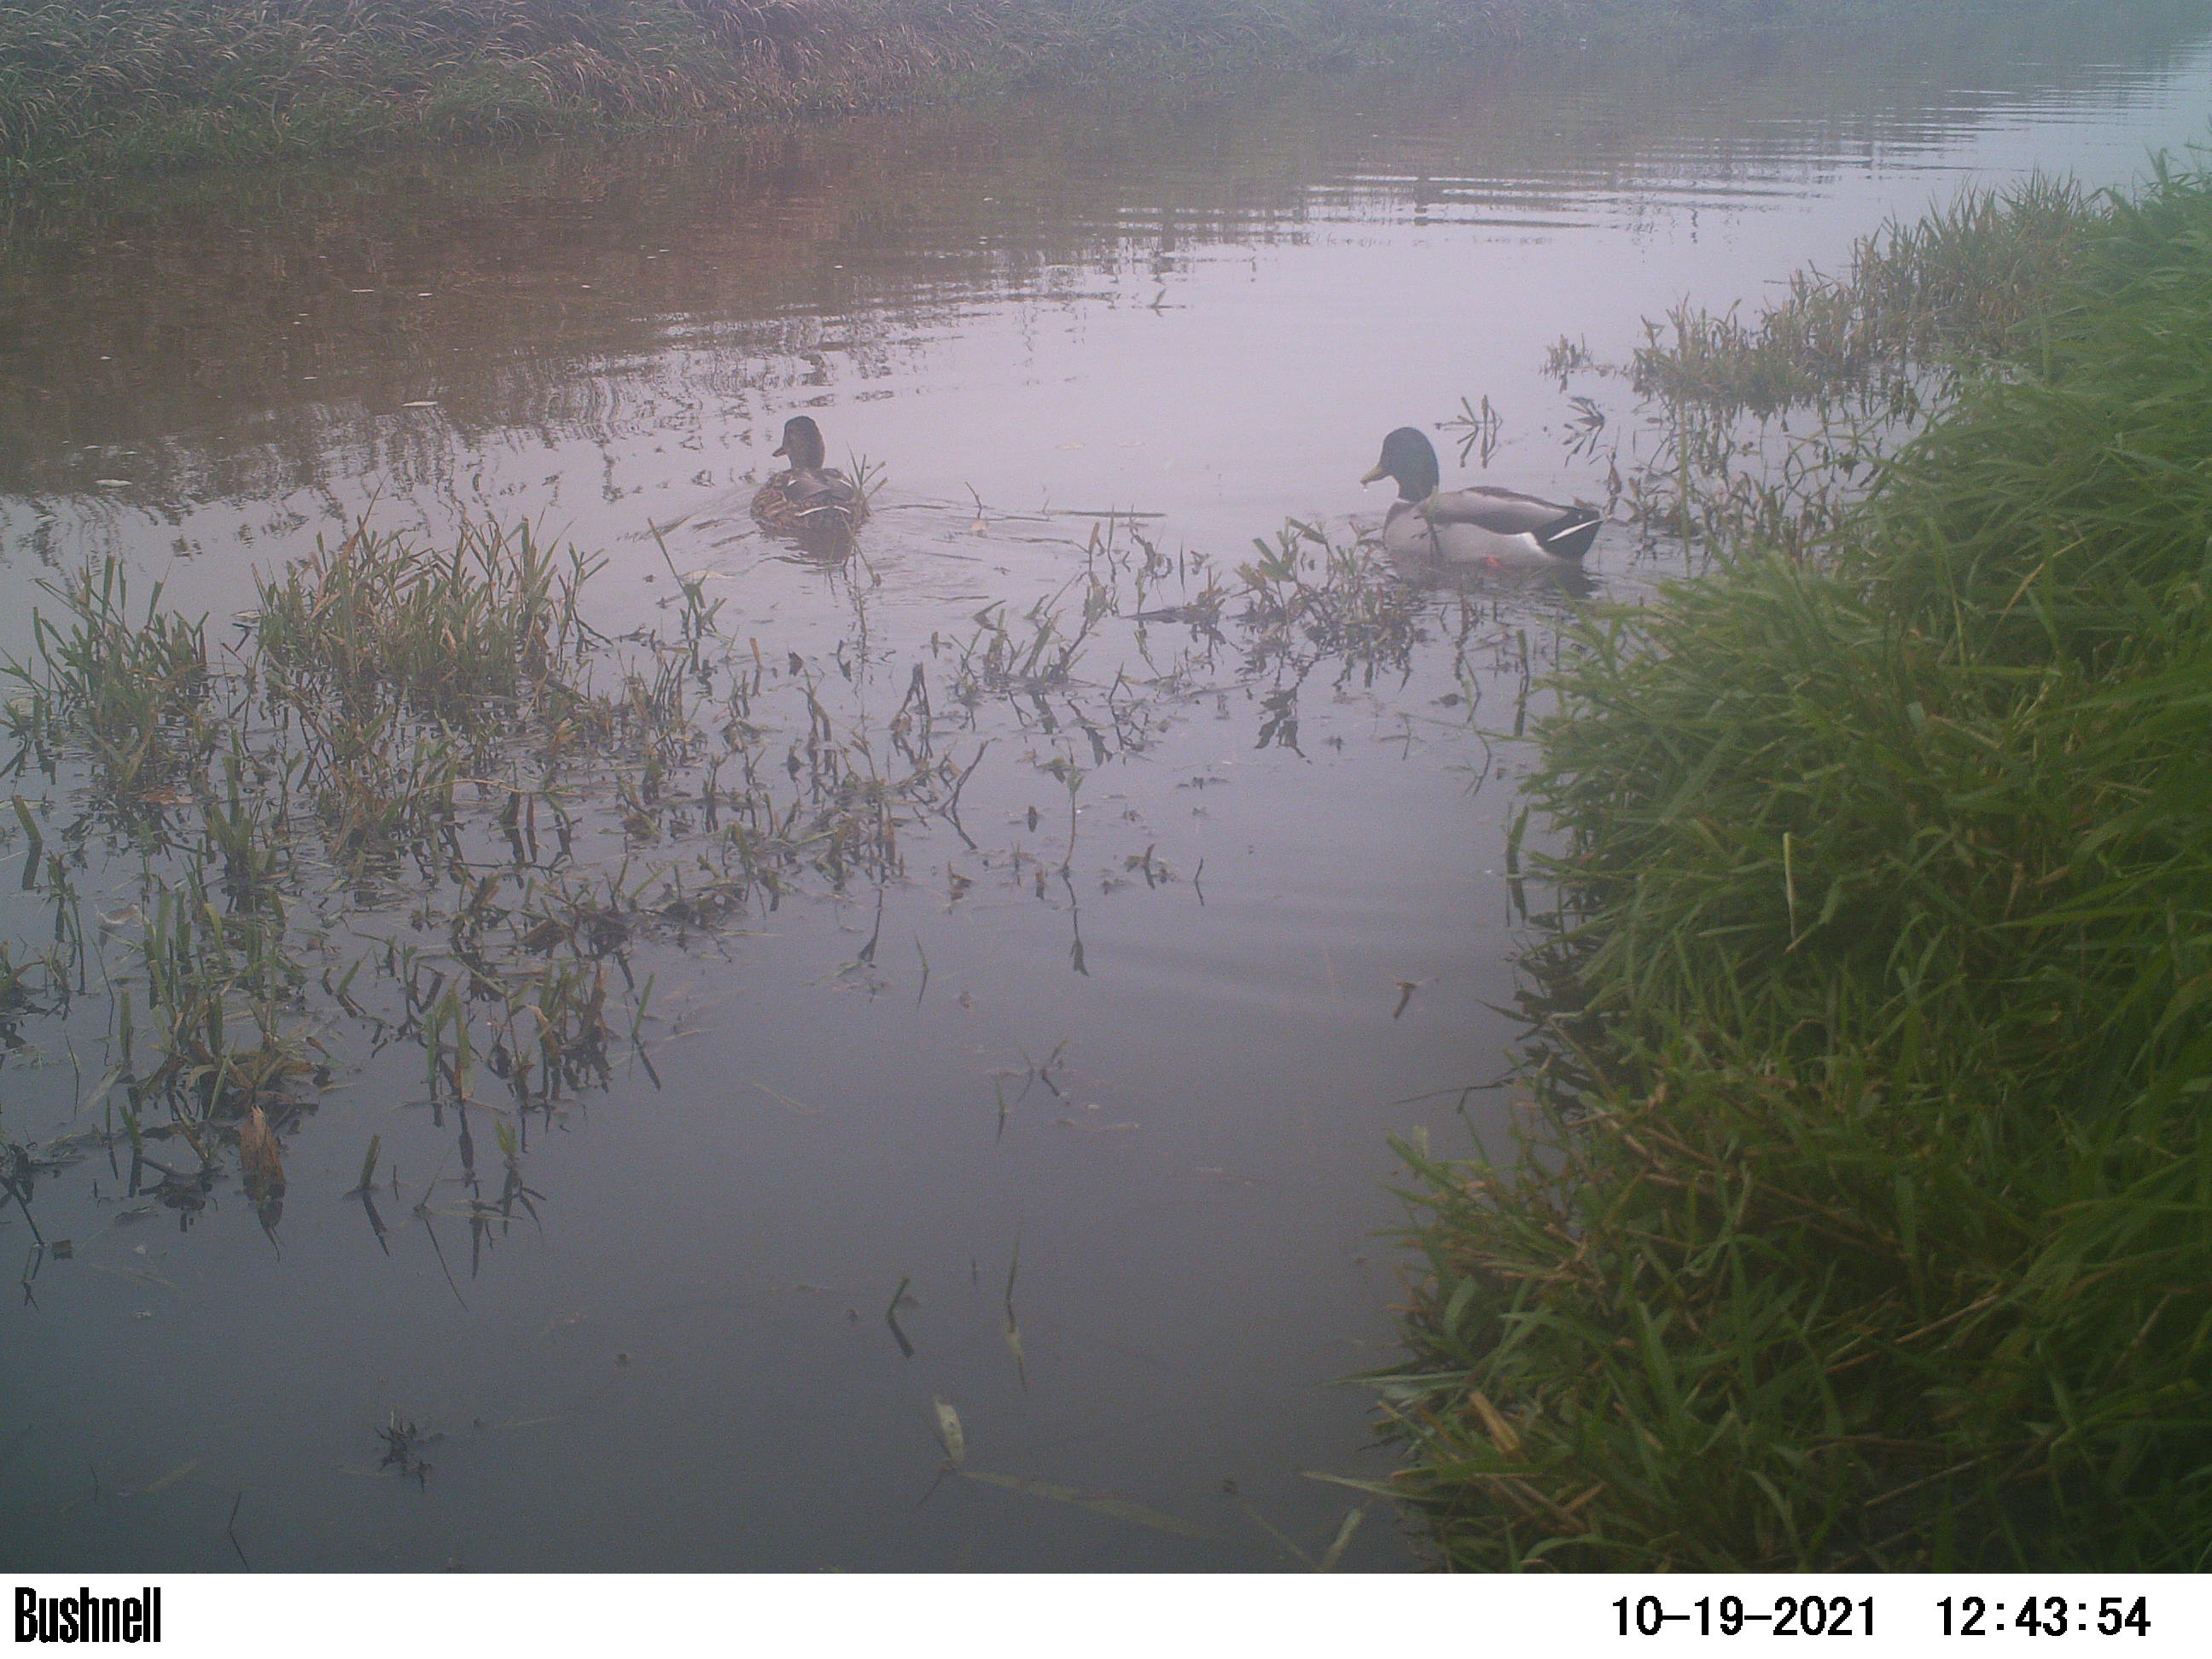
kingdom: Animalia
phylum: Chordata
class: Aves
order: Anseriformes
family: Anatidae
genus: Anas
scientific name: Anas
